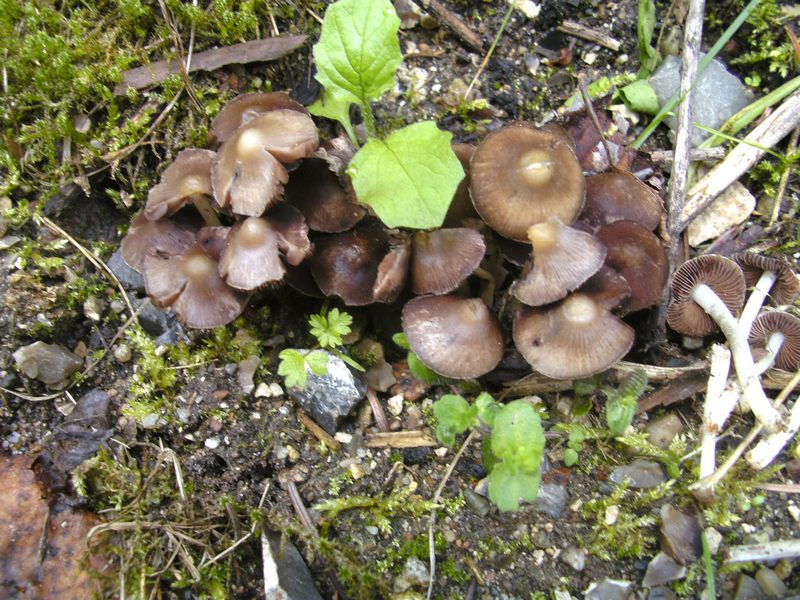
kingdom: Fungi
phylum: Basidiomycota
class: Agaricomycetes
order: Agaricales
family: Psathyrellaceae
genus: Coprinopsis
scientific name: Coprinopsis pannucioides
